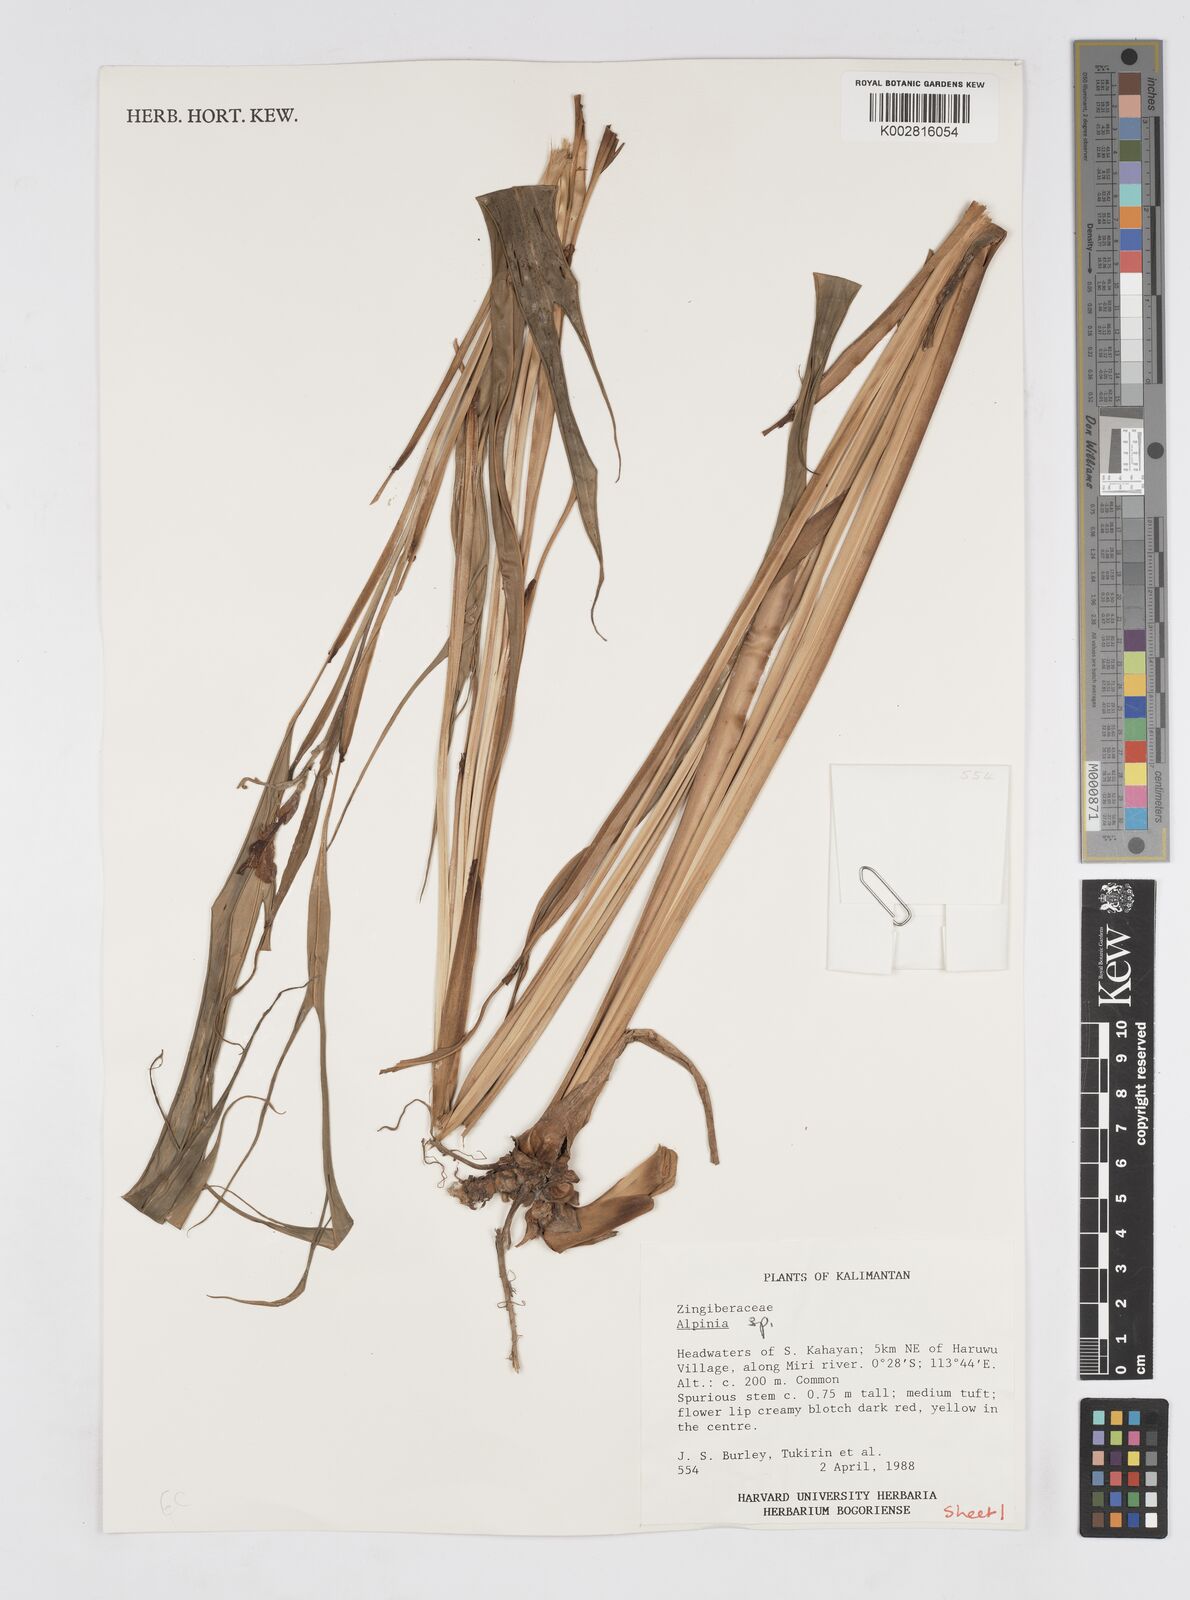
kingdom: Plantae
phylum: Tracheophyta
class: Liliopsida
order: Zingiberales
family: Zingiberaceae
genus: Alpinia
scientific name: Alpinia
